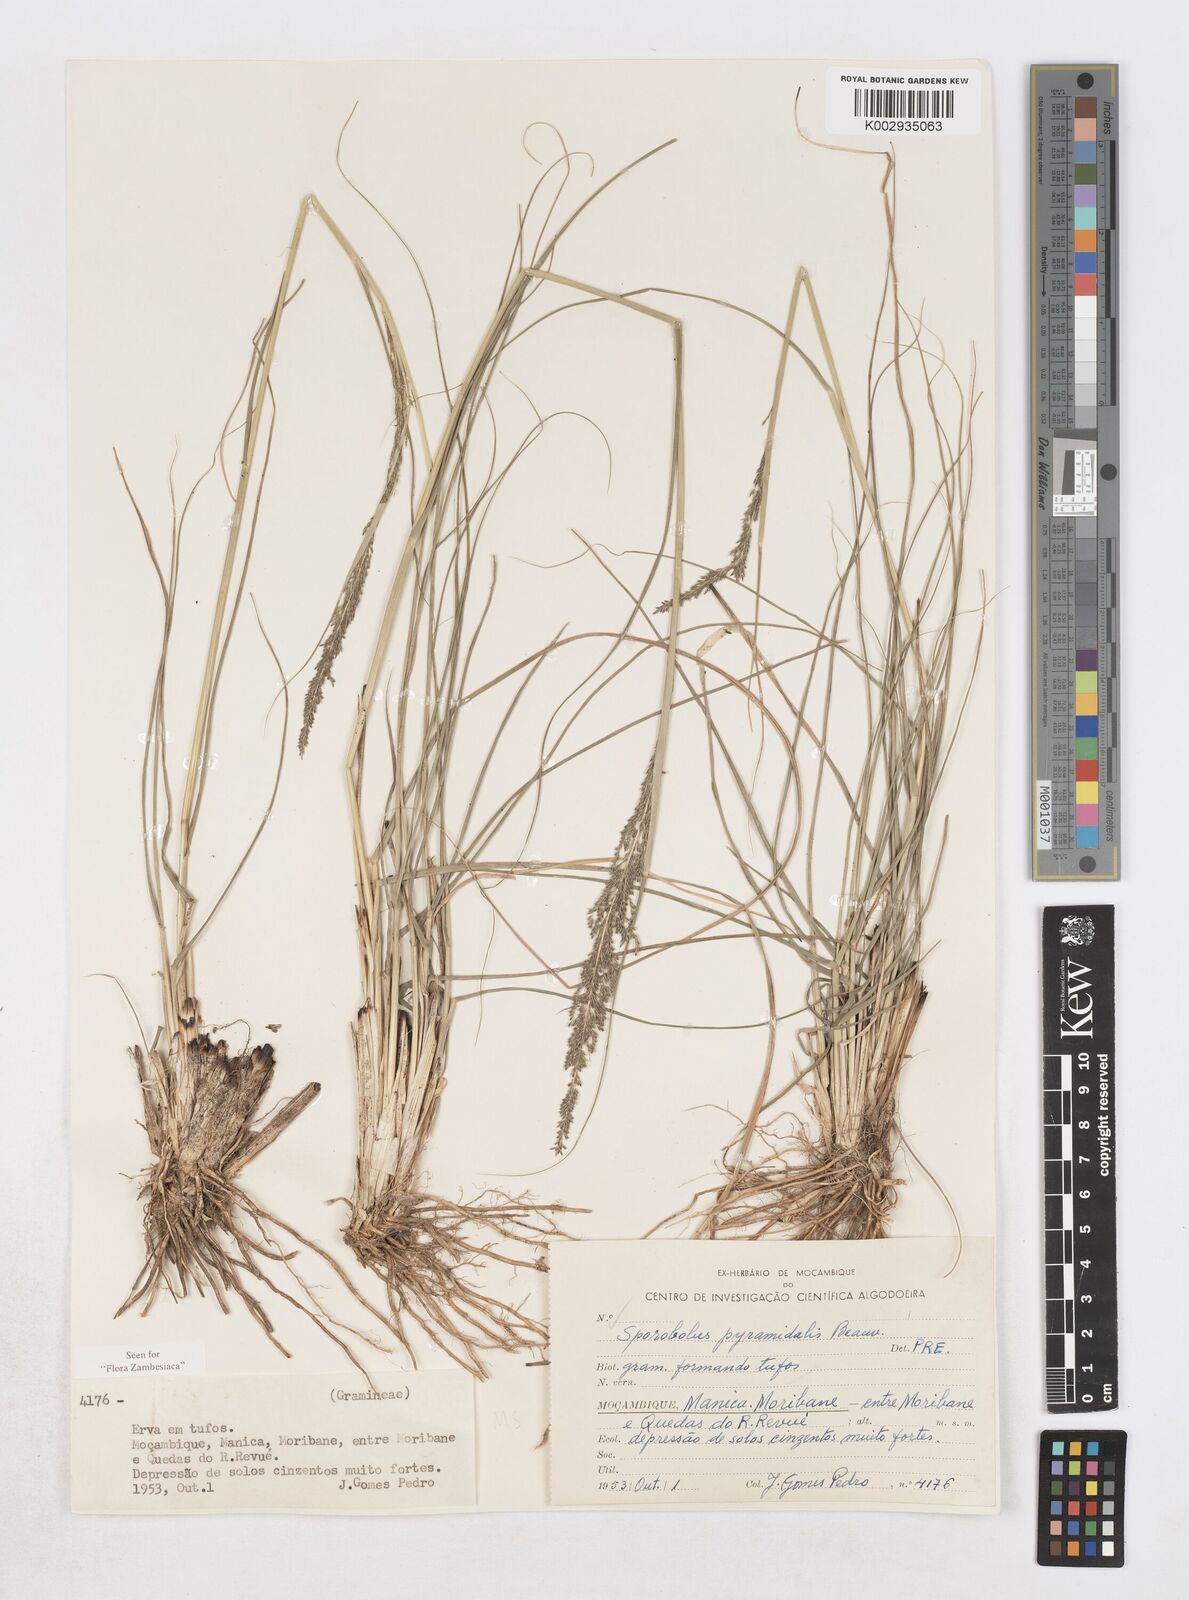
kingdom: Plantae
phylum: Tracheophyta
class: Liliopsida
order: Poales
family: Poaceae
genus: Sporobolus
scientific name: Sporobolus pyramidalis
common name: West indian dropseed
